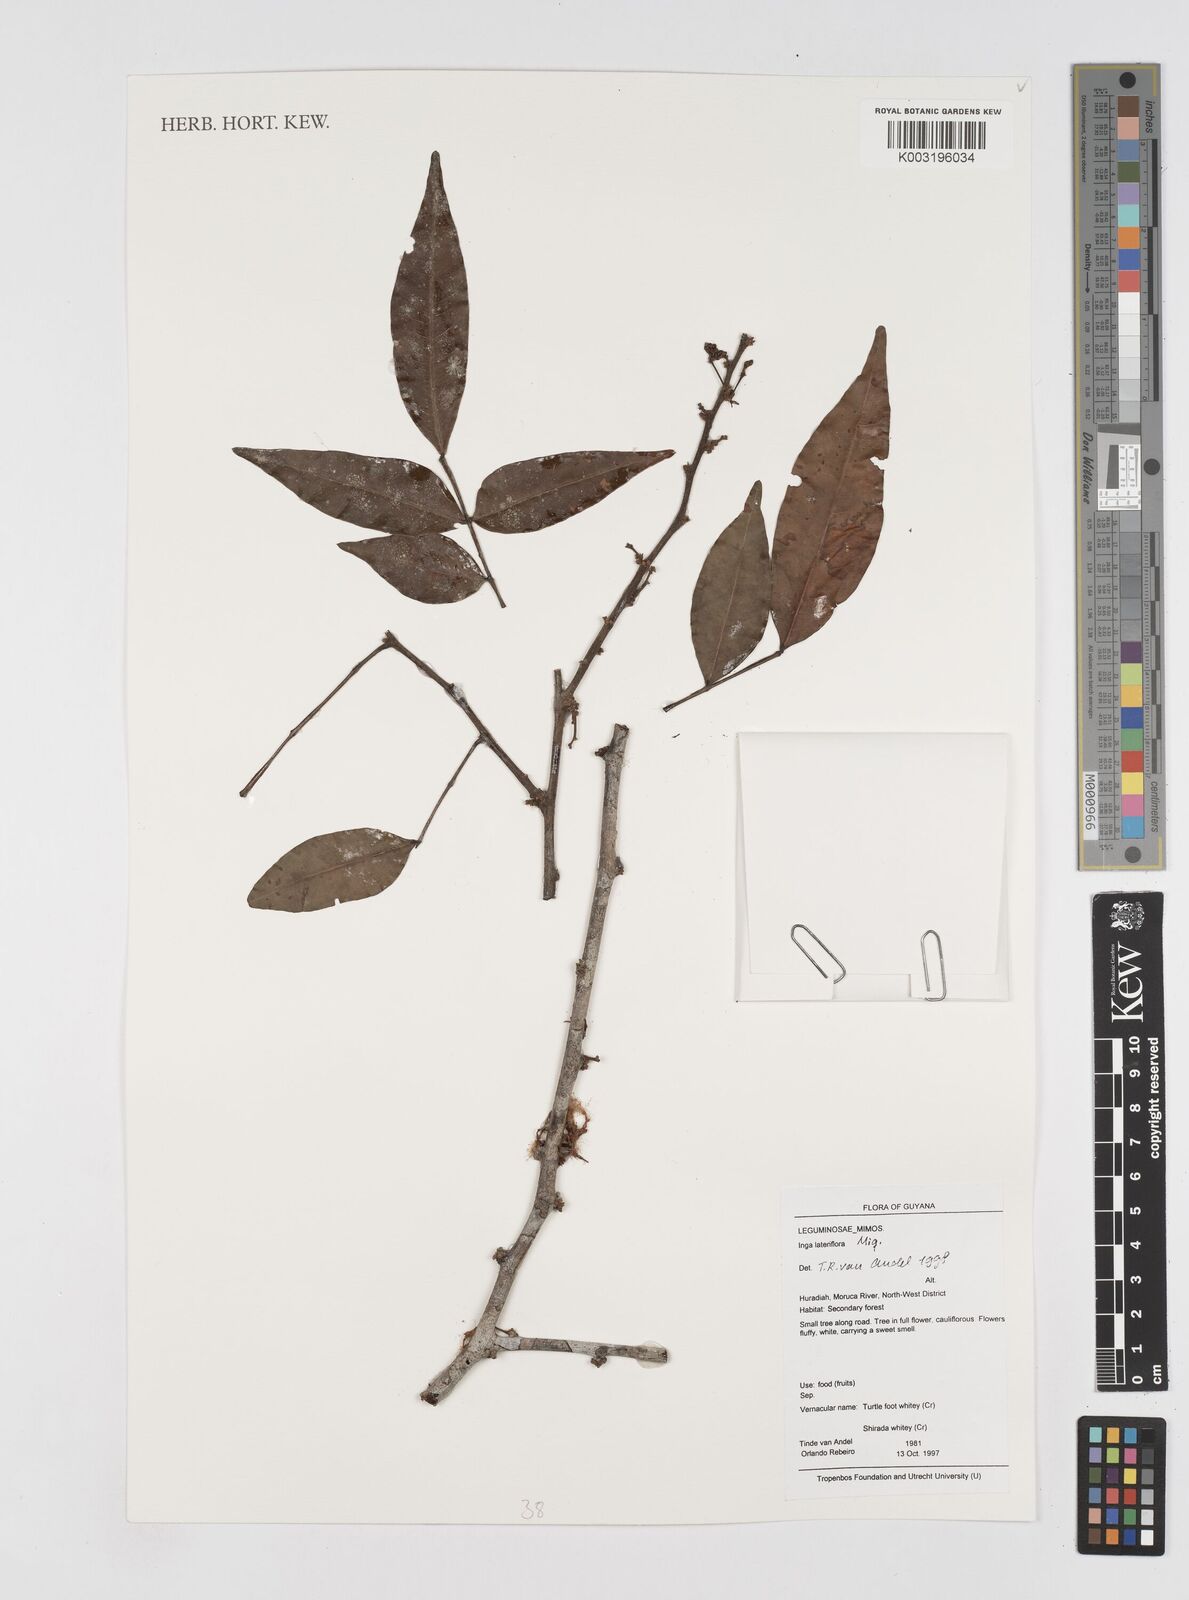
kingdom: Plantae
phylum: Tracheophyta
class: Magnoliopsida
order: Fabales
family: Fabaceae
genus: Inga
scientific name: Inga lateriflora
